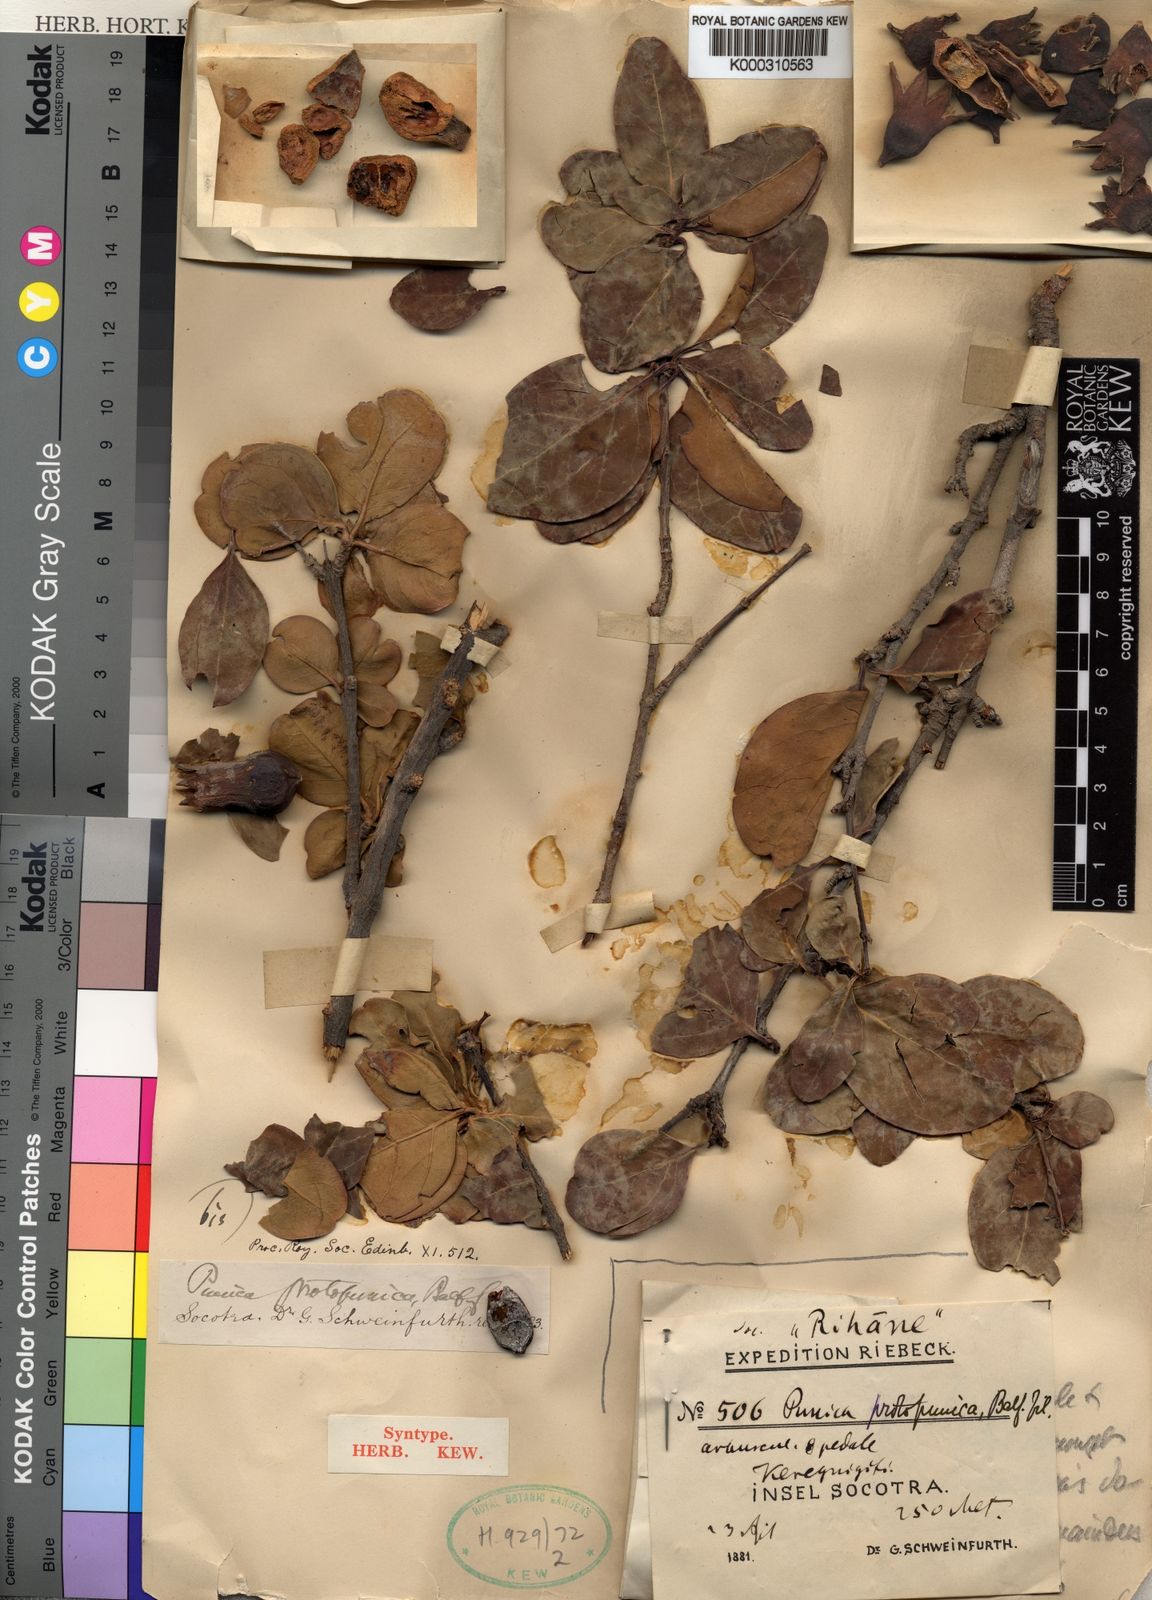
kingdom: Plantae
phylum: Tracheophyta
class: Magnoliopsida
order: Myrtales
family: Lythraceae
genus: Punica
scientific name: Punica protopunica
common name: Pomegranate tree
